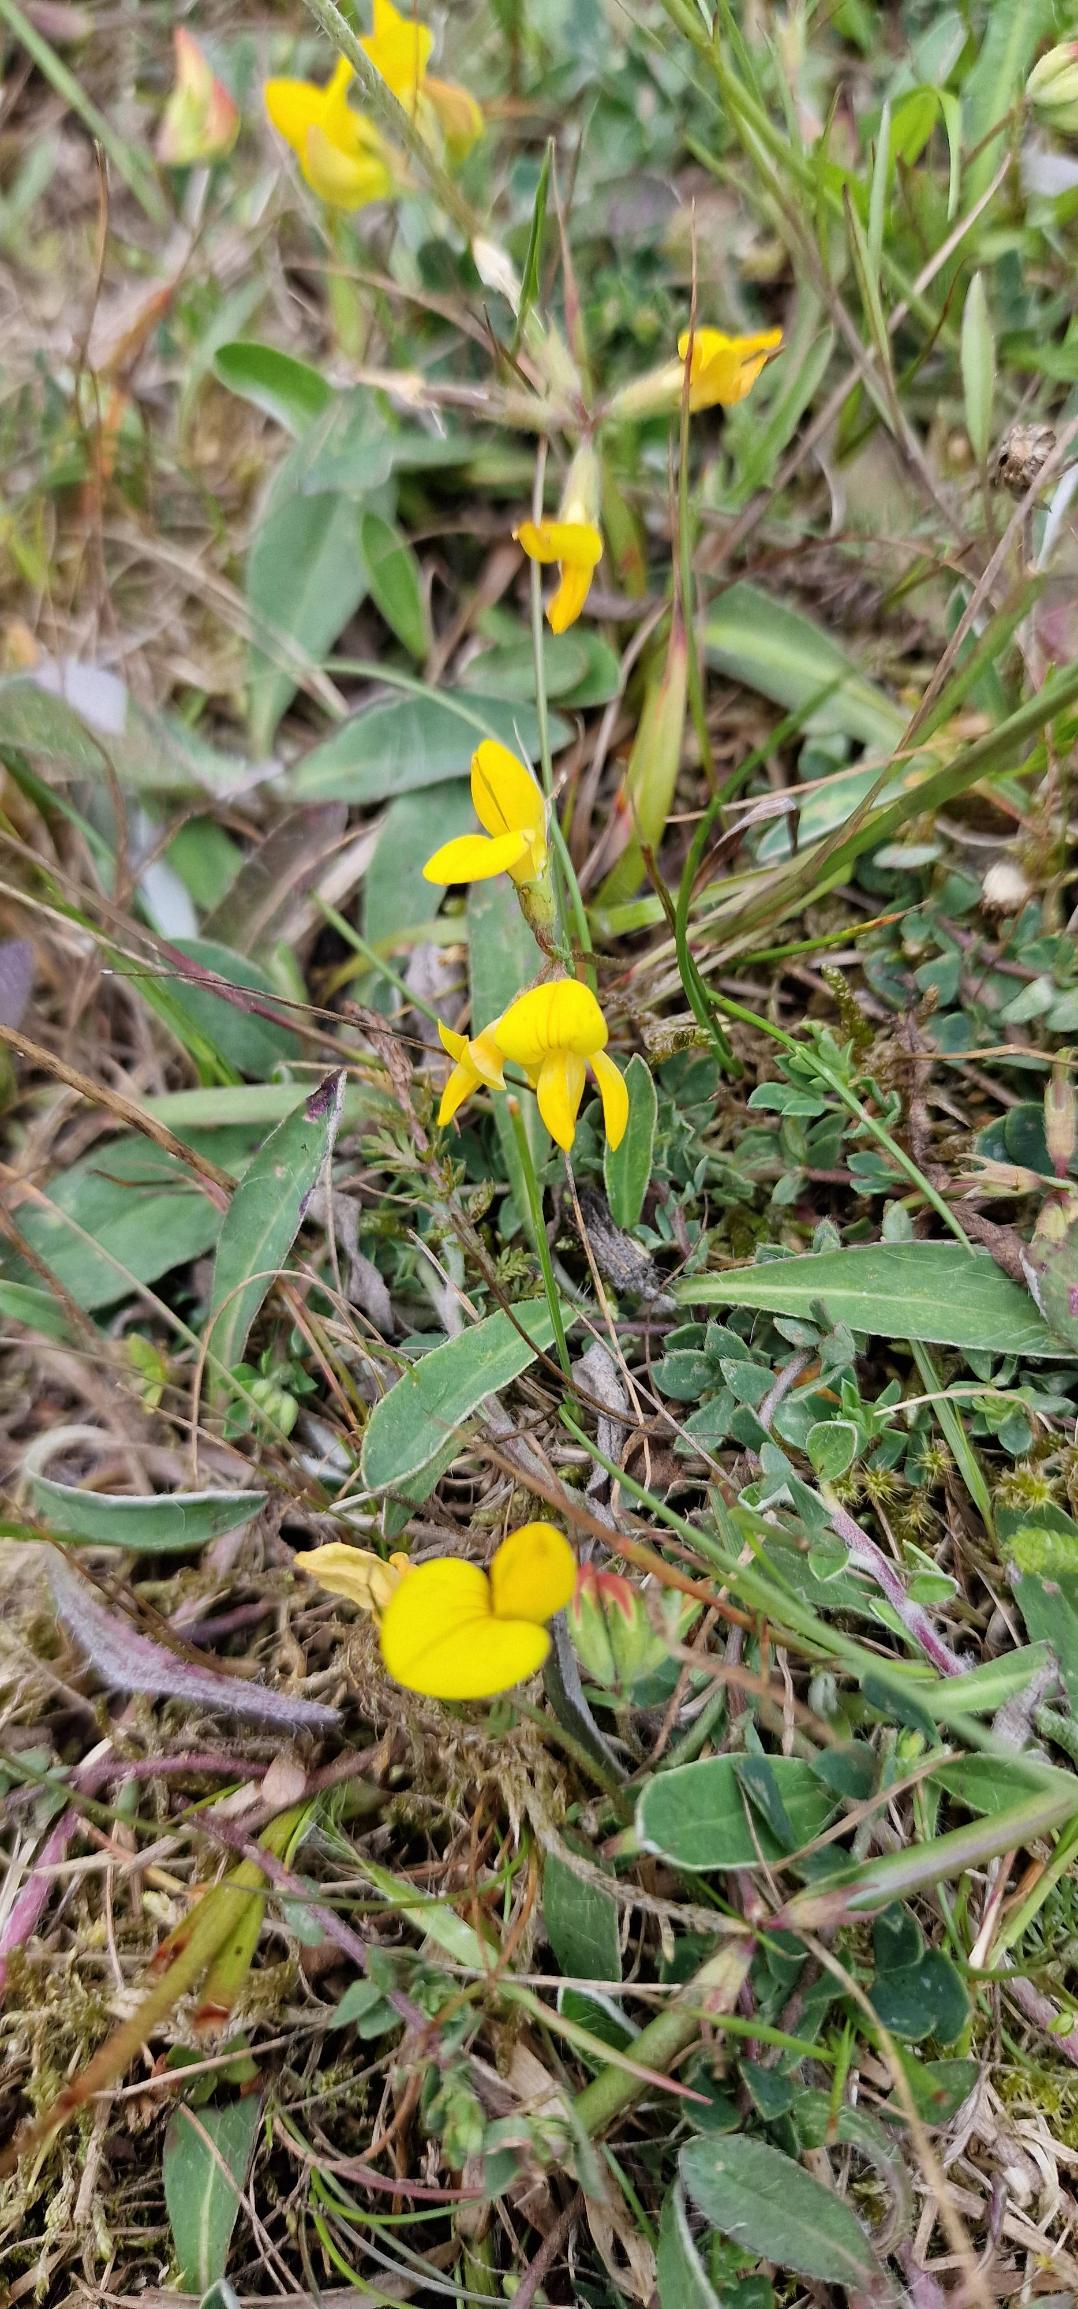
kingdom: Plantae
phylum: Tracheophyta
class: Magnoliopsida
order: Fabales
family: Fabaceae
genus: Lotus
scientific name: Lotus corniculatus
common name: Almindelig kællingetand
